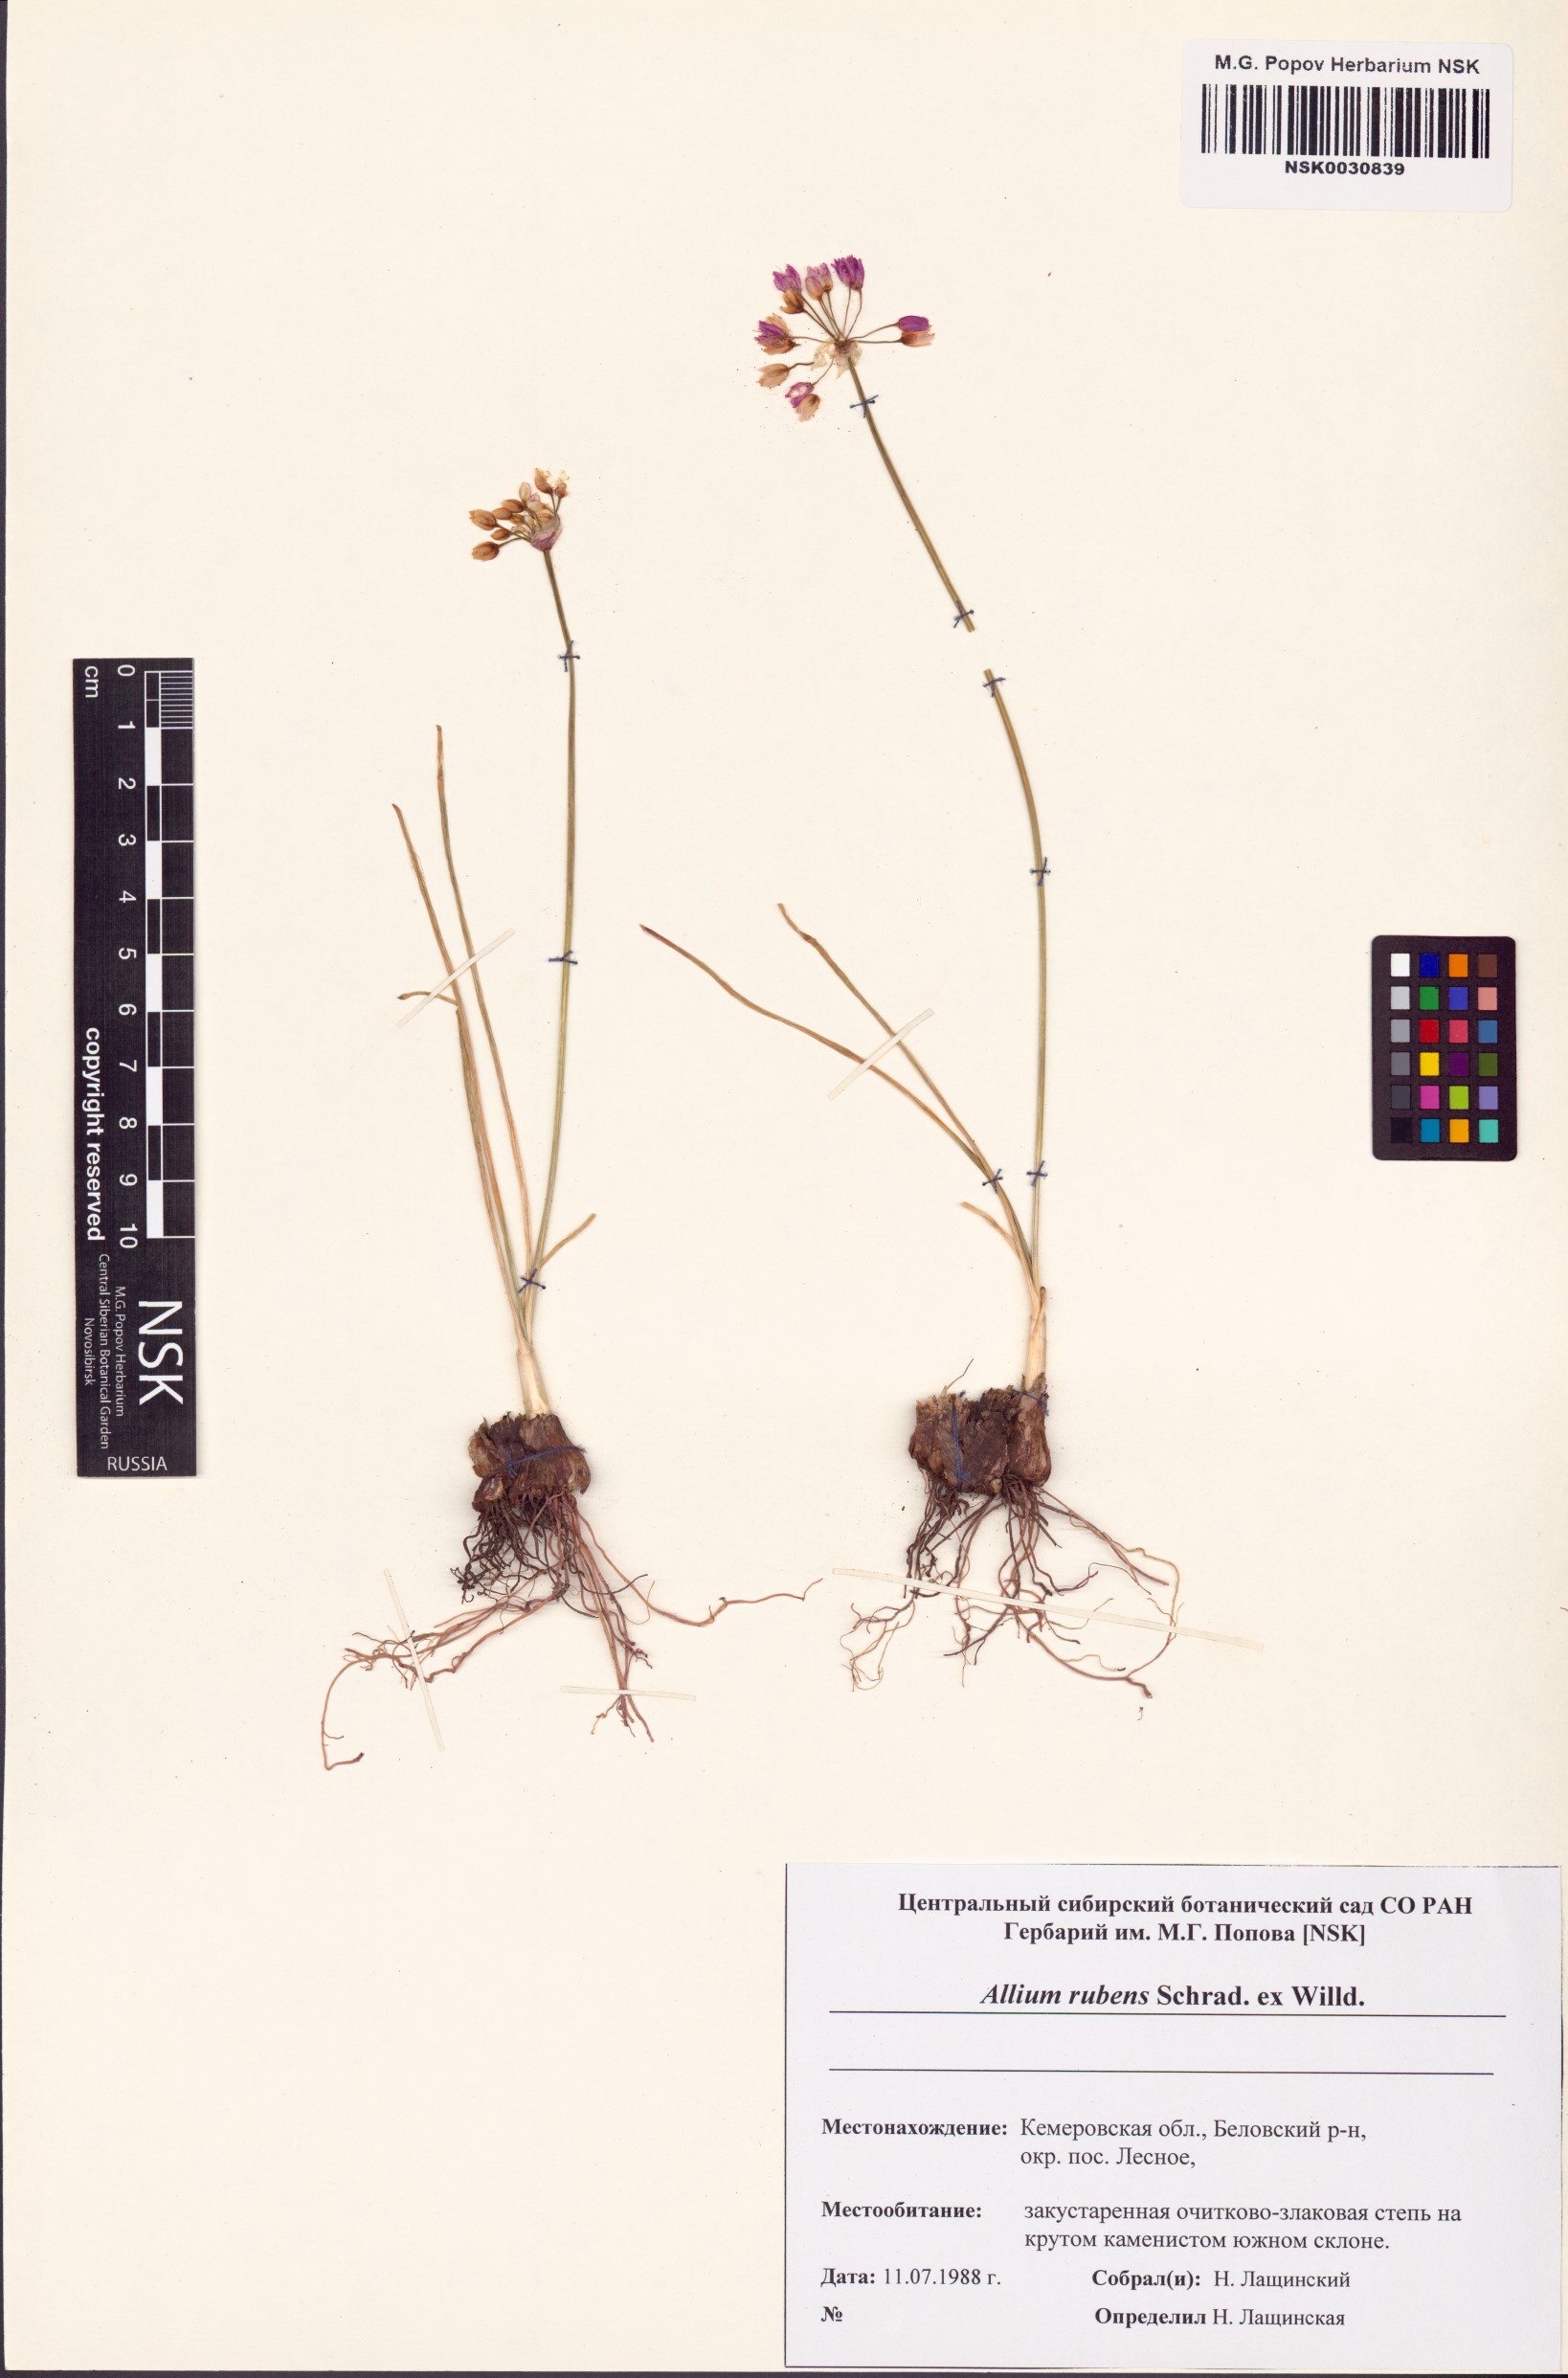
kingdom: Plantae
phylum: Tracheophyta
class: Liliopsida
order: Asparagales
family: Amaryllidaceae
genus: Allium
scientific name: Allium rubens
